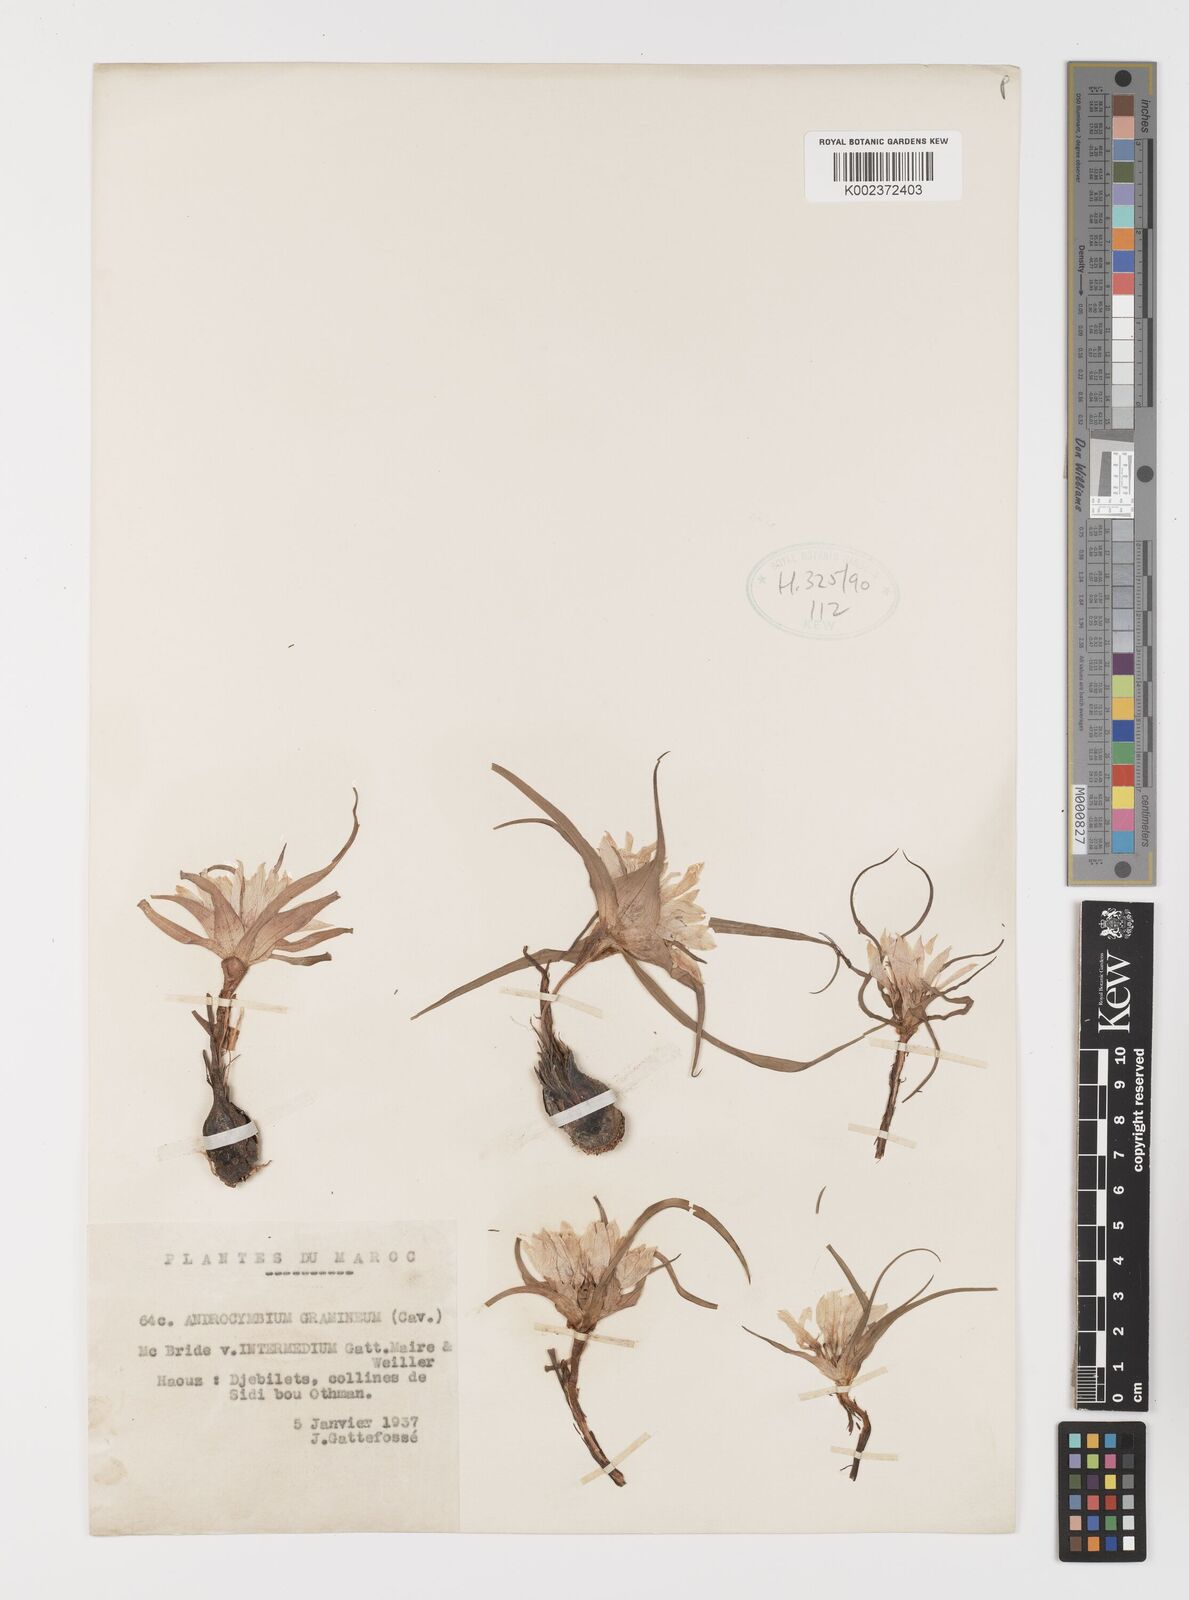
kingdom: Plantae
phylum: Tracheophyta
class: Liliopsida
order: Liliales
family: Colchicaceae
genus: Colchicum
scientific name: Colchicum gramineum
